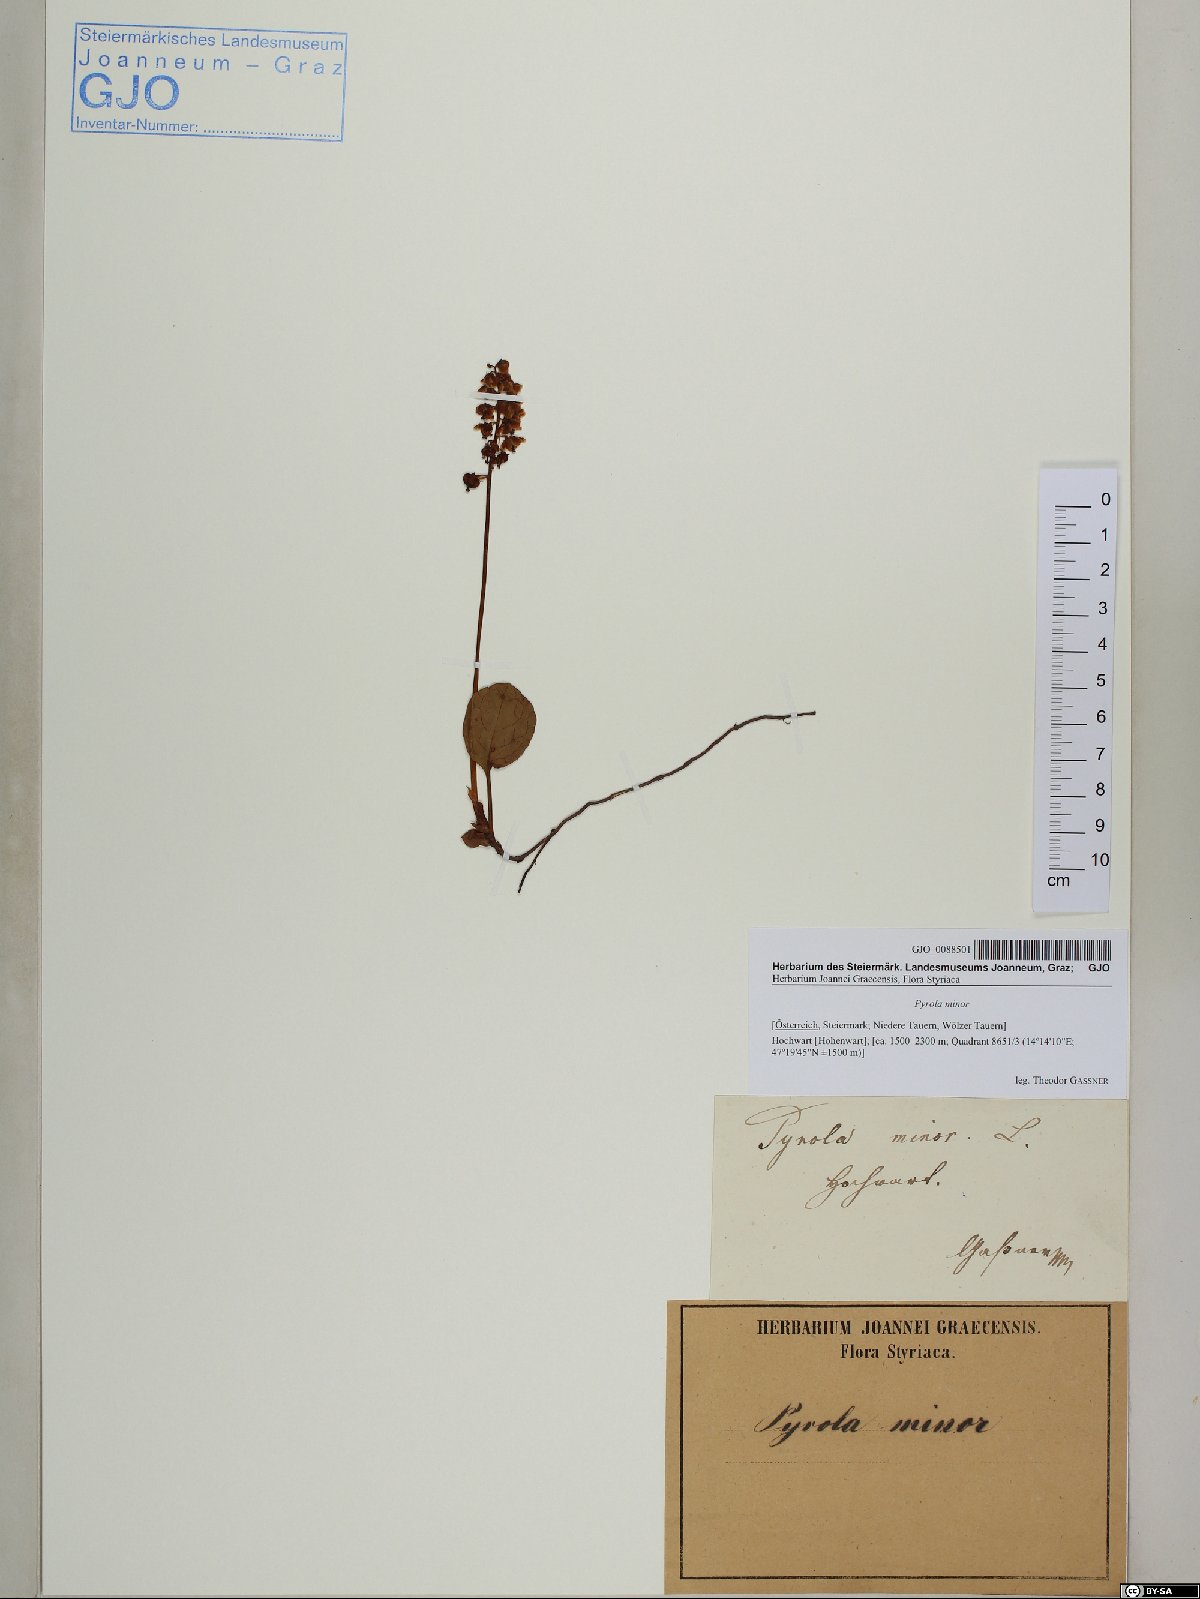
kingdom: Plantae
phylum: Tracheophyta
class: Magnoliopsida
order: Ericales
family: Ericaceae
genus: Pyrola
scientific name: Pyrola minor
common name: Common wintergreen
